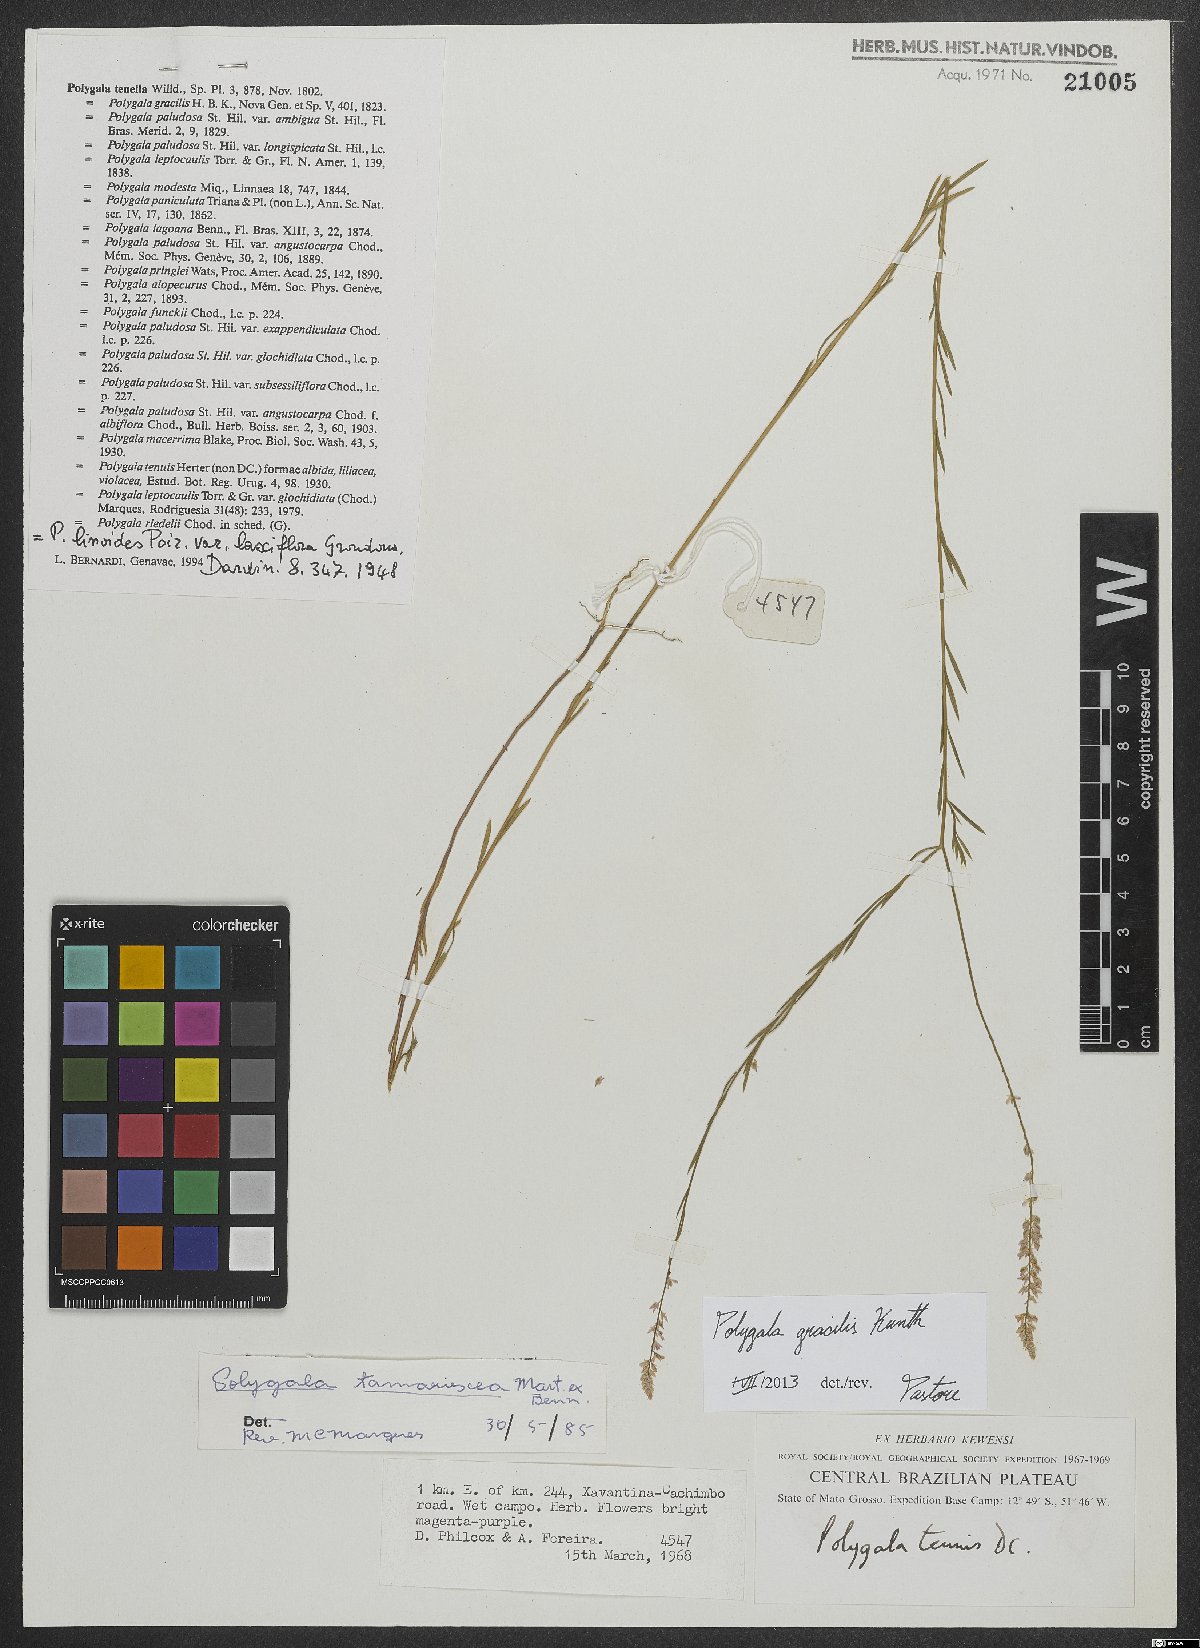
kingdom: Plantae
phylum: Tracheophyta
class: Magnoliopsida
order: Fabales
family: Polygalaceae
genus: Polygala
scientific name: Polygala gracilis
